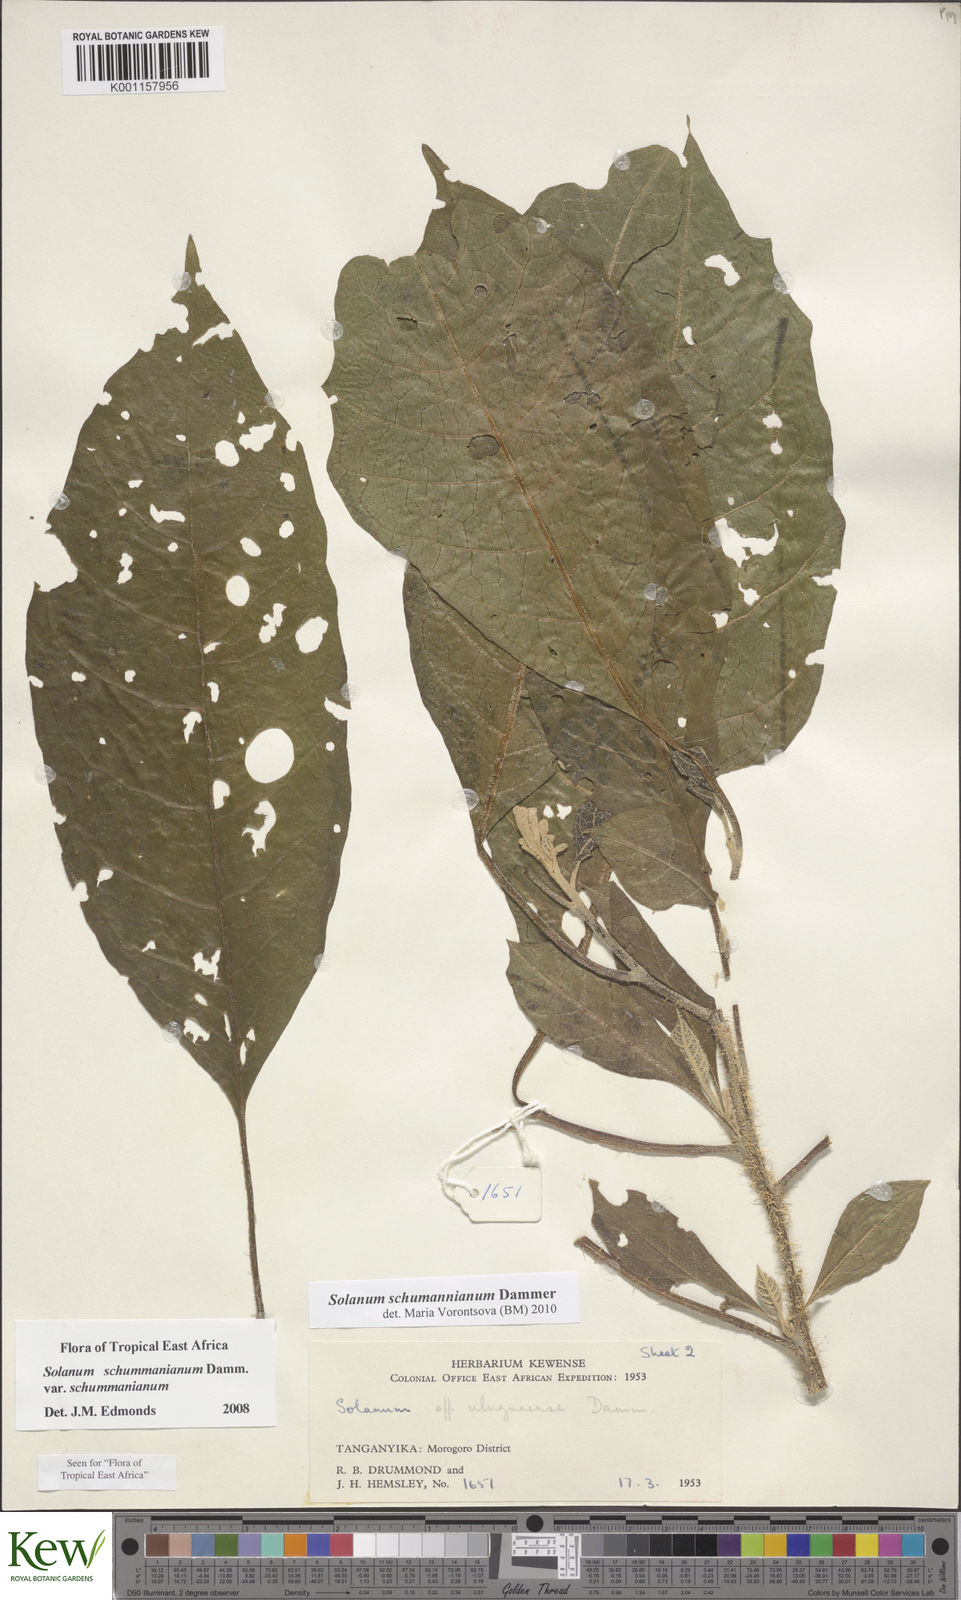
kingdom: Plantae
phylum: Tracheophyta
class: Magnoliopsida
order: Solanales
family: Solanaceae
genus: Solanum
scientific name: Solanum schumannianum
